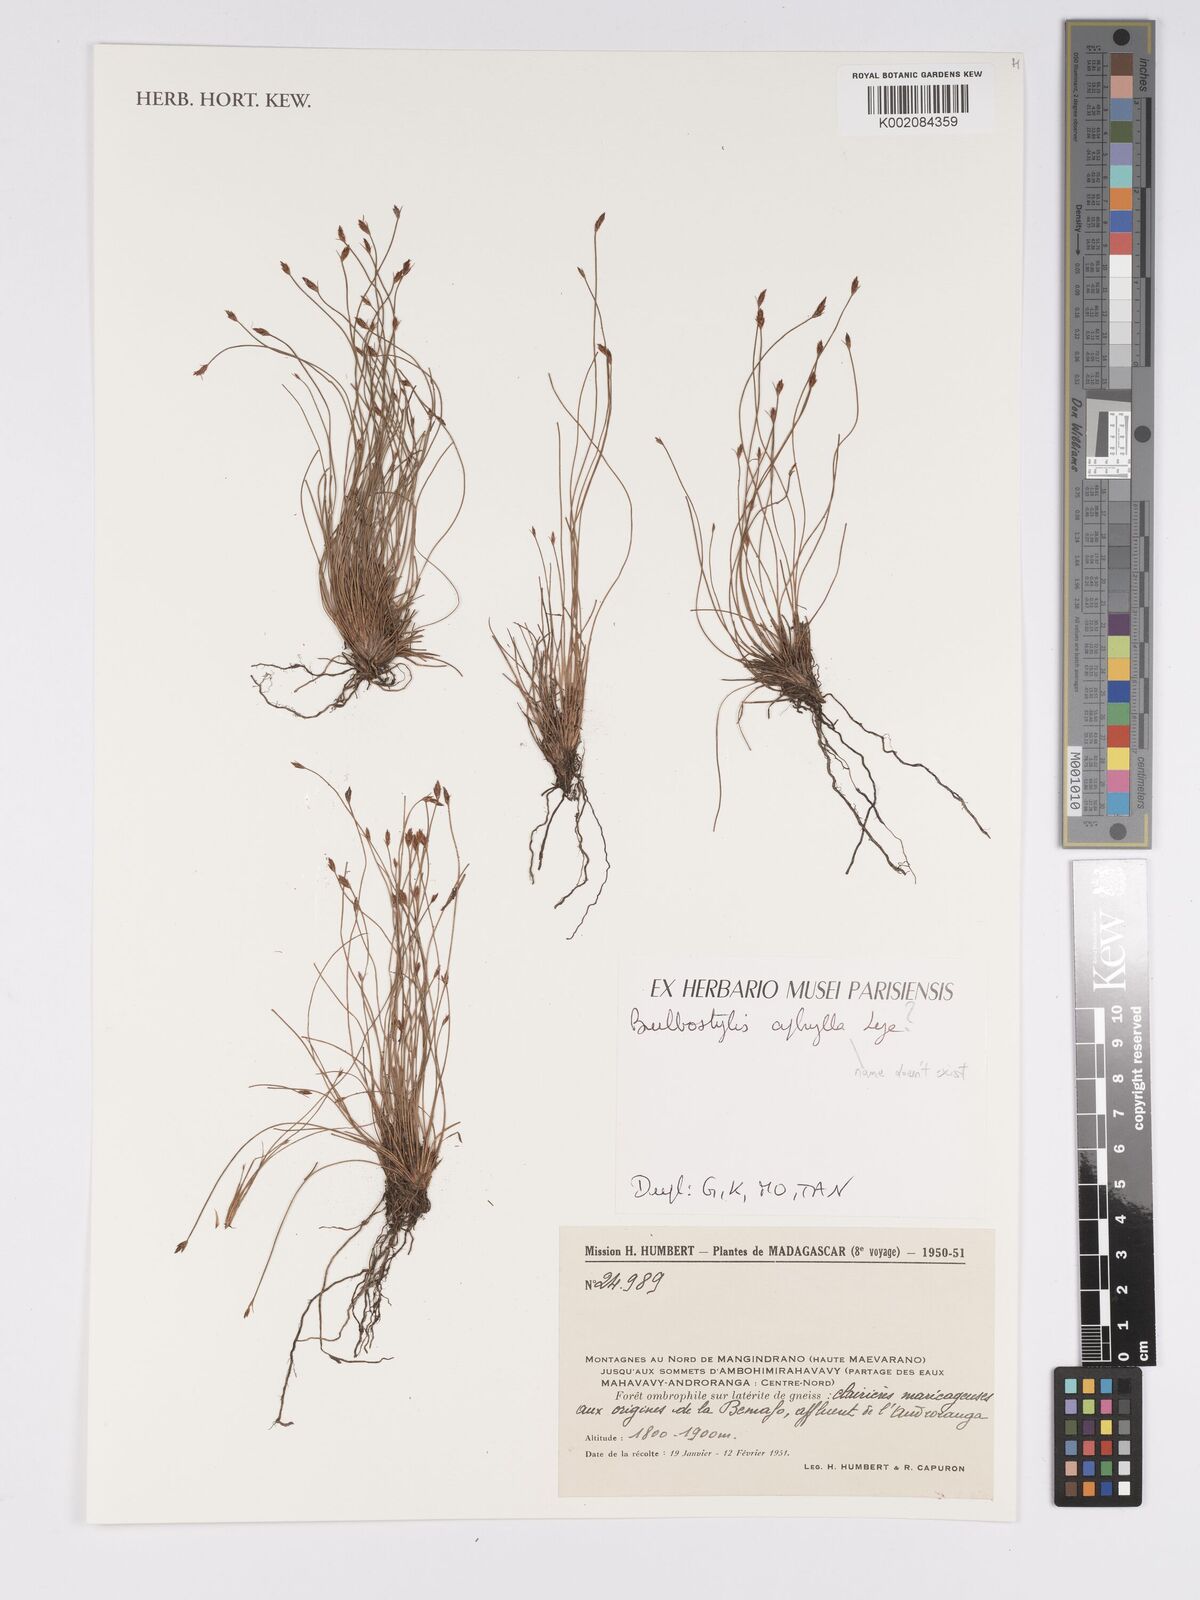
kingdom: Plantae
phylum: Tracheophyta
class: Liliopsida
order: Poales
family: Cyperaceae
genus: Bulbostylis
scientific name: Bulbostylis
